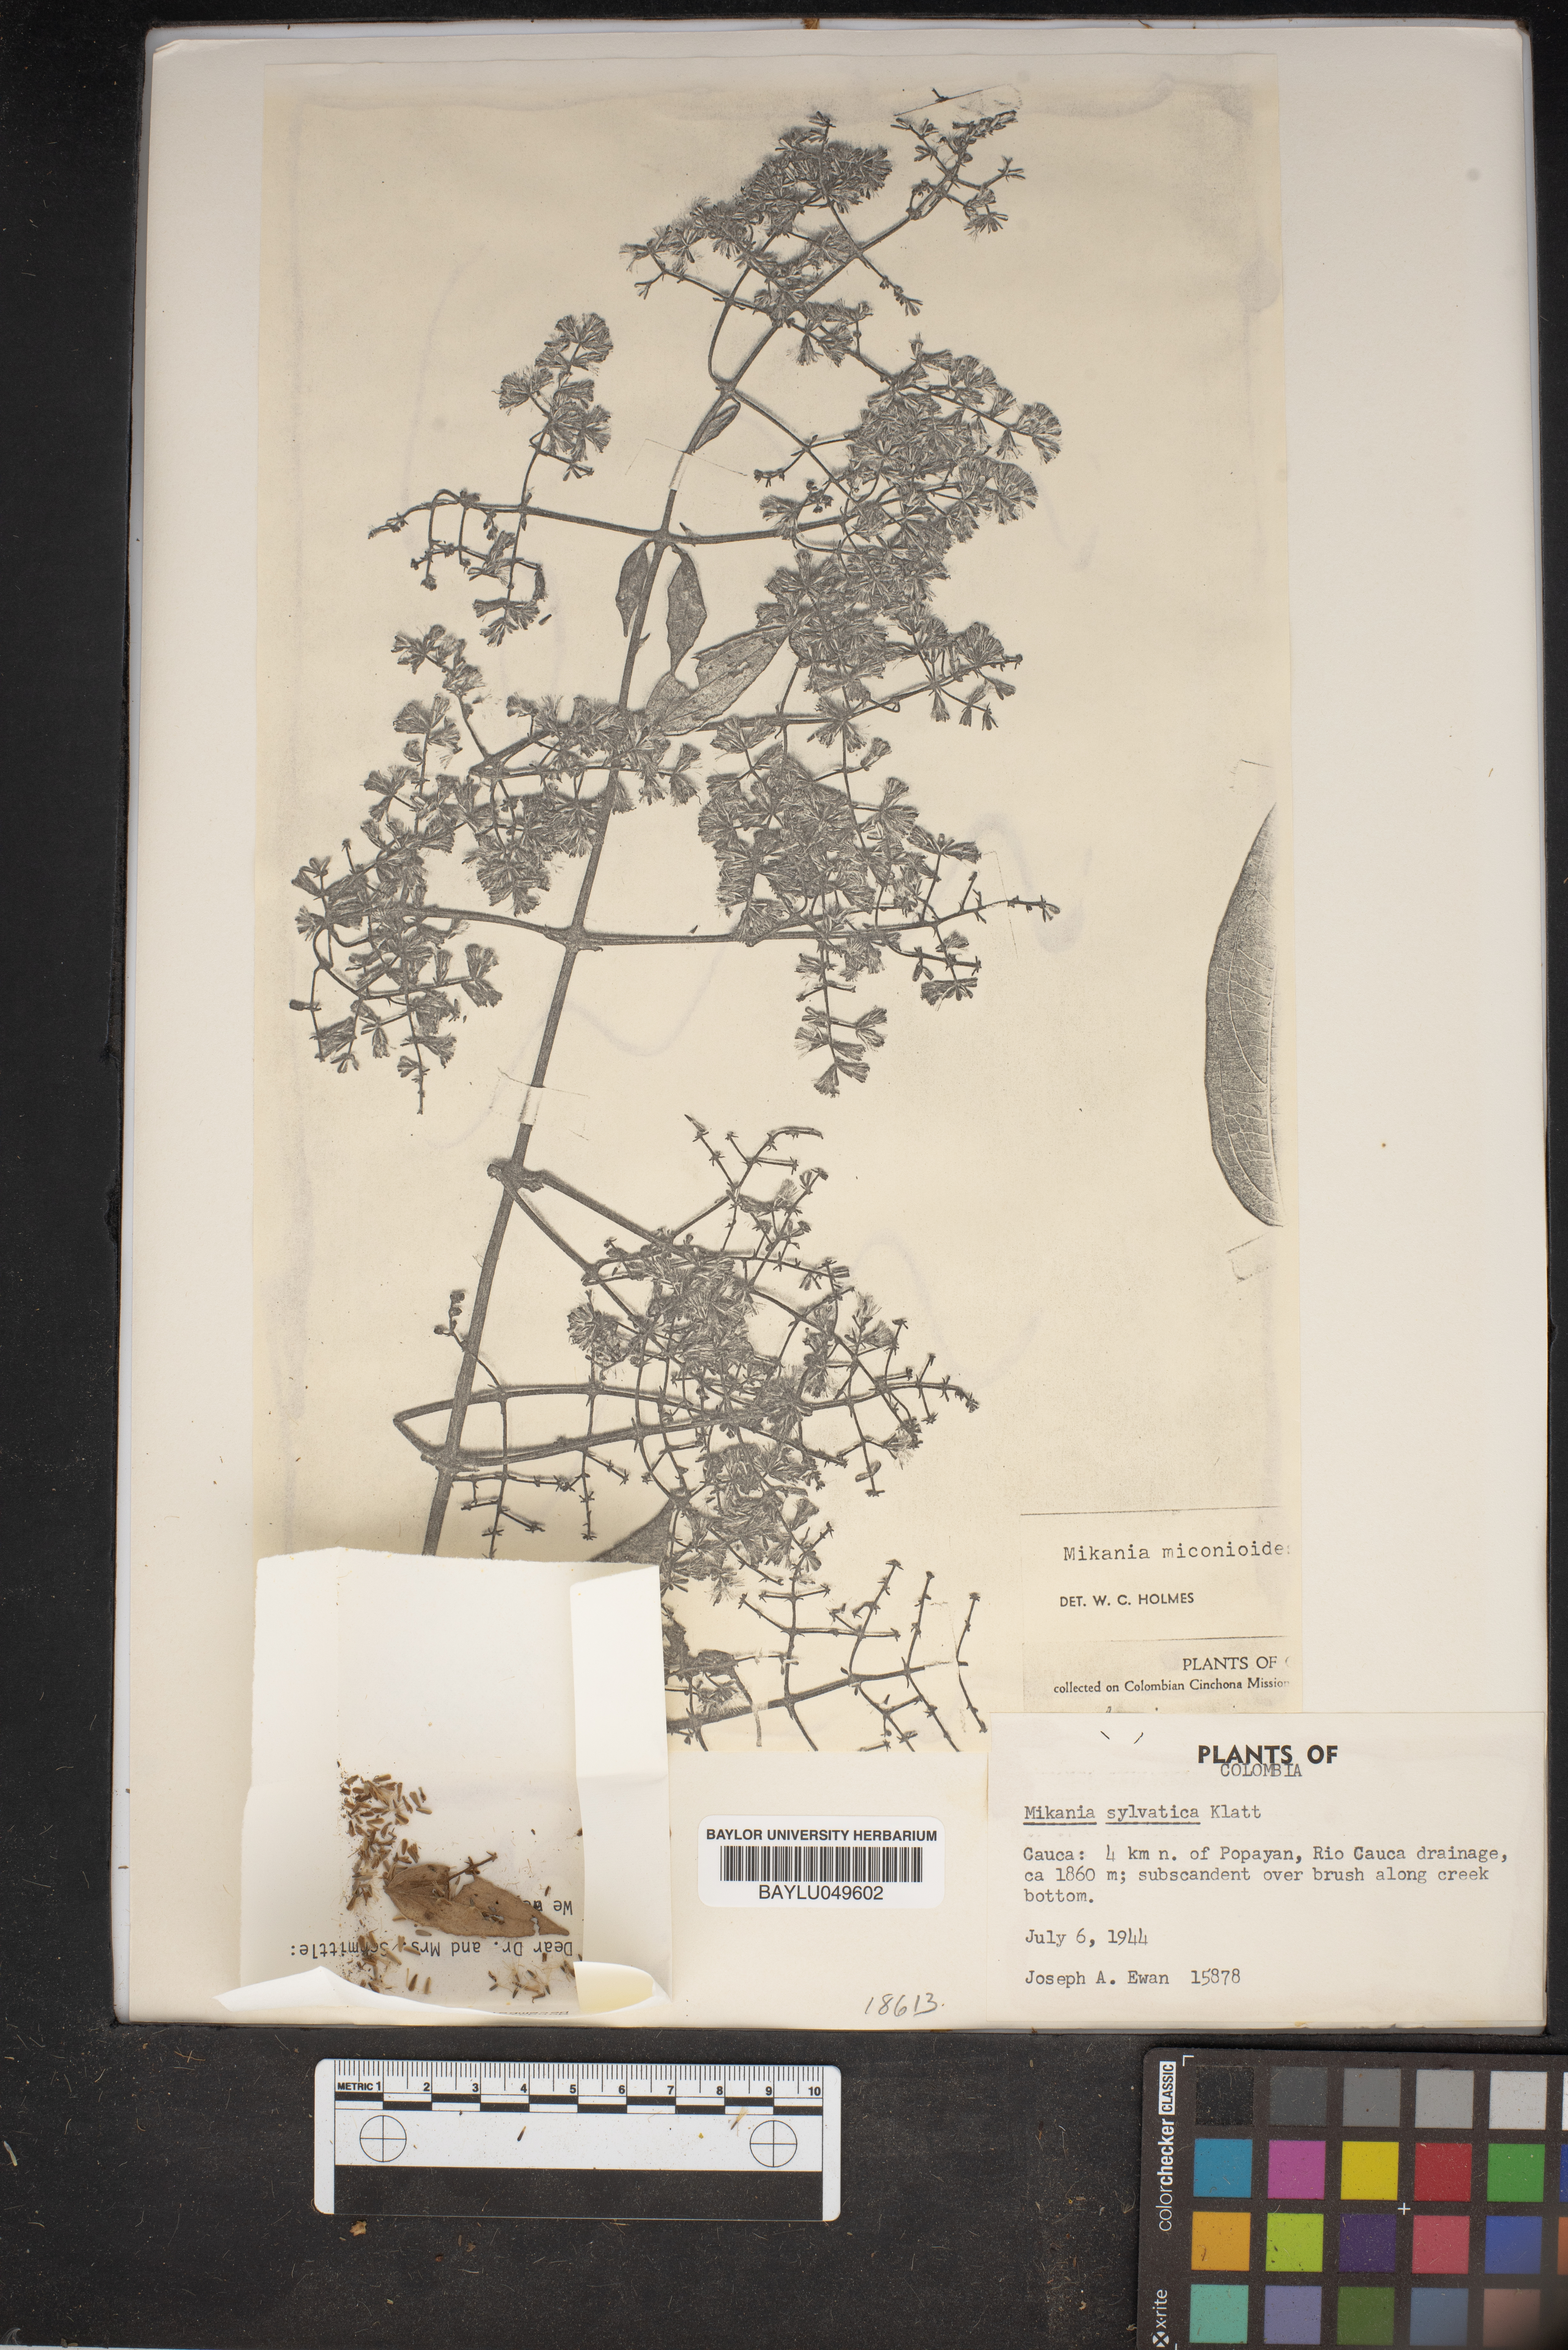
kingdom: Plantae
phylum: Tracheophyta
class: Magnoliopsida
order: Asterales
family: Asteraceae
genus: Mikania
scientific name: Mikania sylvatica
